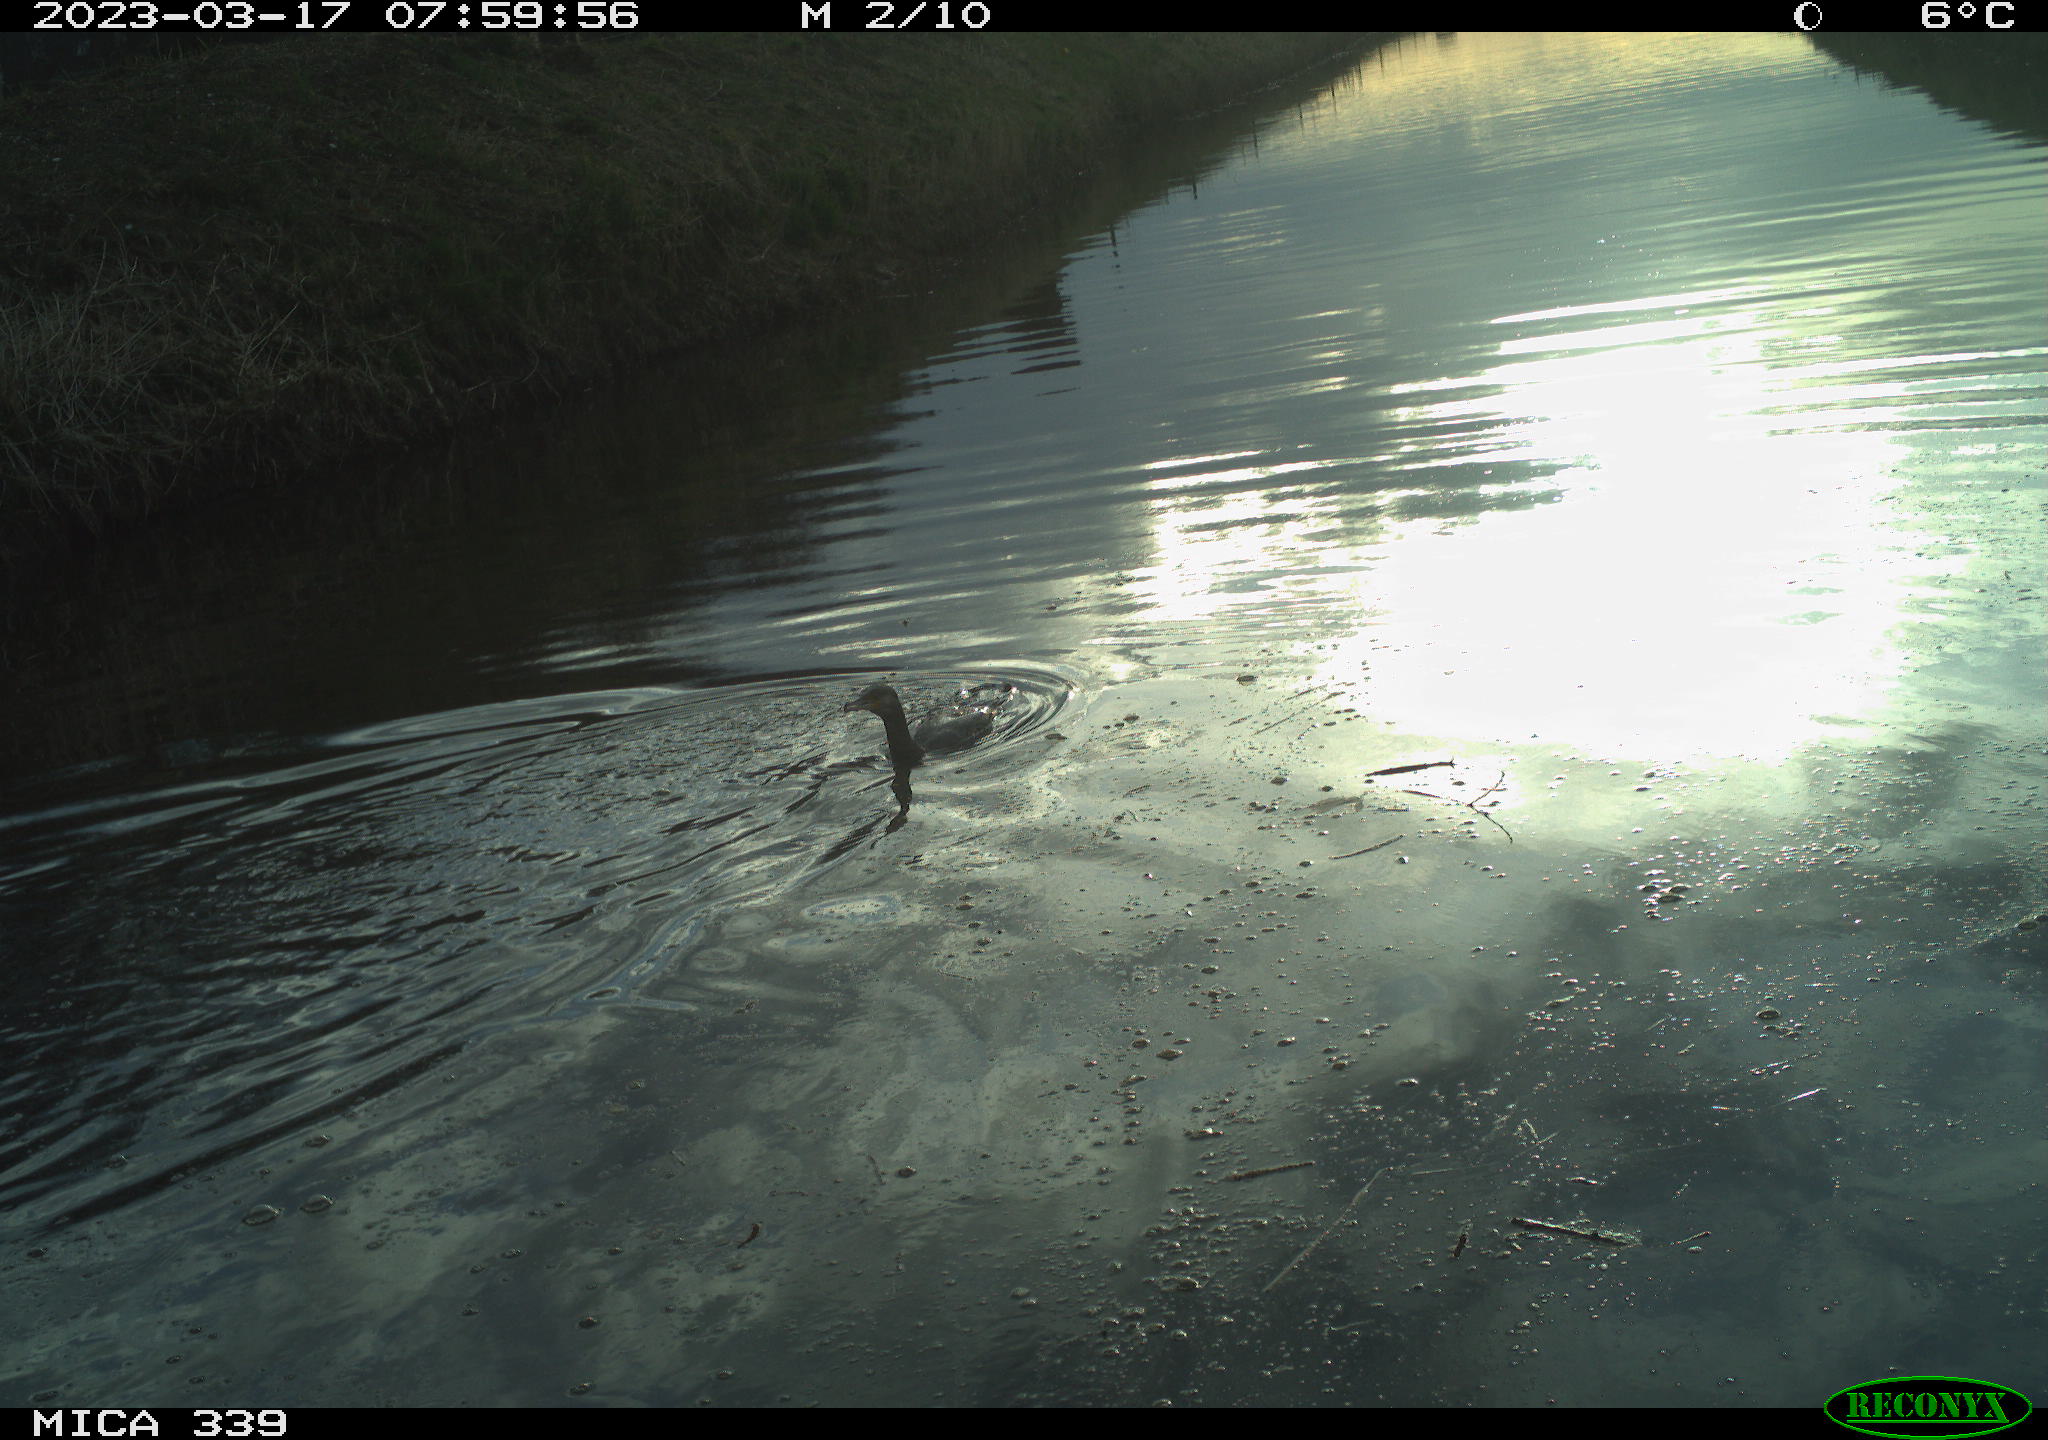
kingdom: Animalia
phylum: Chordata
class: Aves
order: Suliformes
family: Phalacrocoracidae
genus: Phalacrocorax
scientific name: Phalacrocorax carbo
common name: Great cormorant
